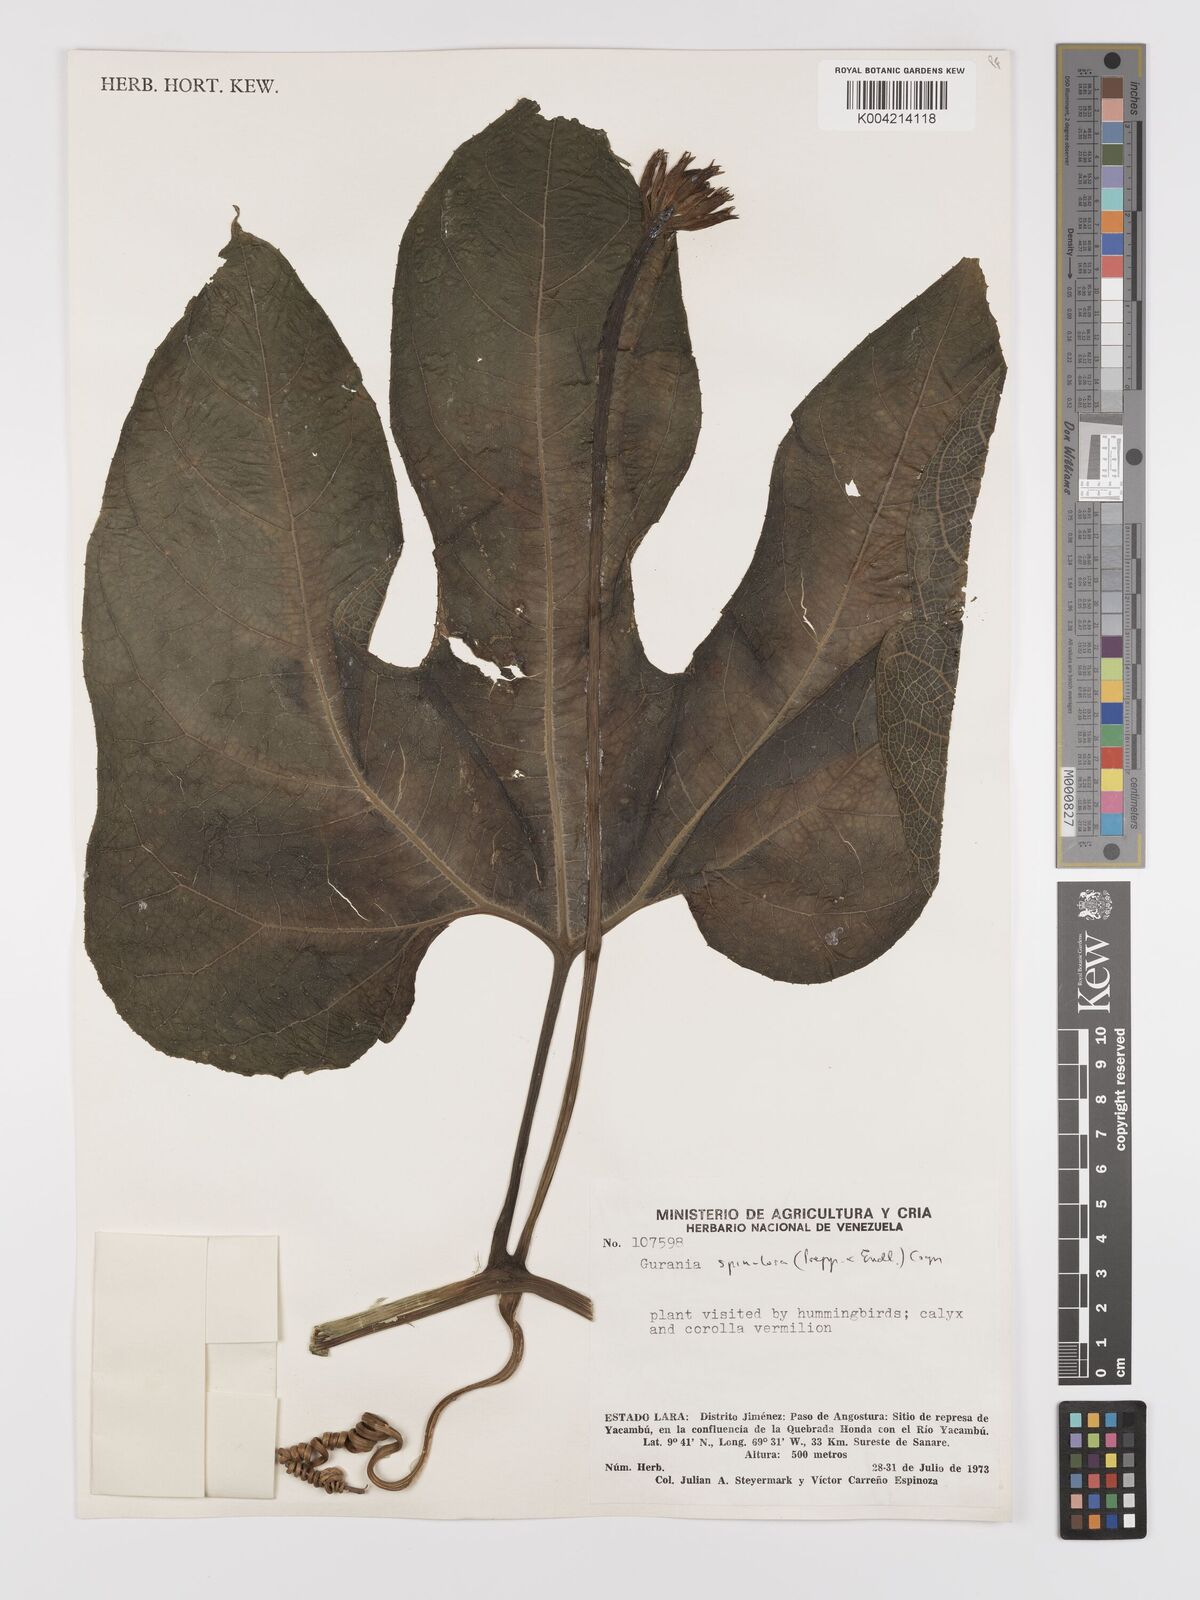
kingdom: Plantae
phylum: Tracheophyta
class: Magnoliopsida
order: Cucurbitales
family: Cucurbitaceae
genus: Gurania
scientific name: Gurania lobata
